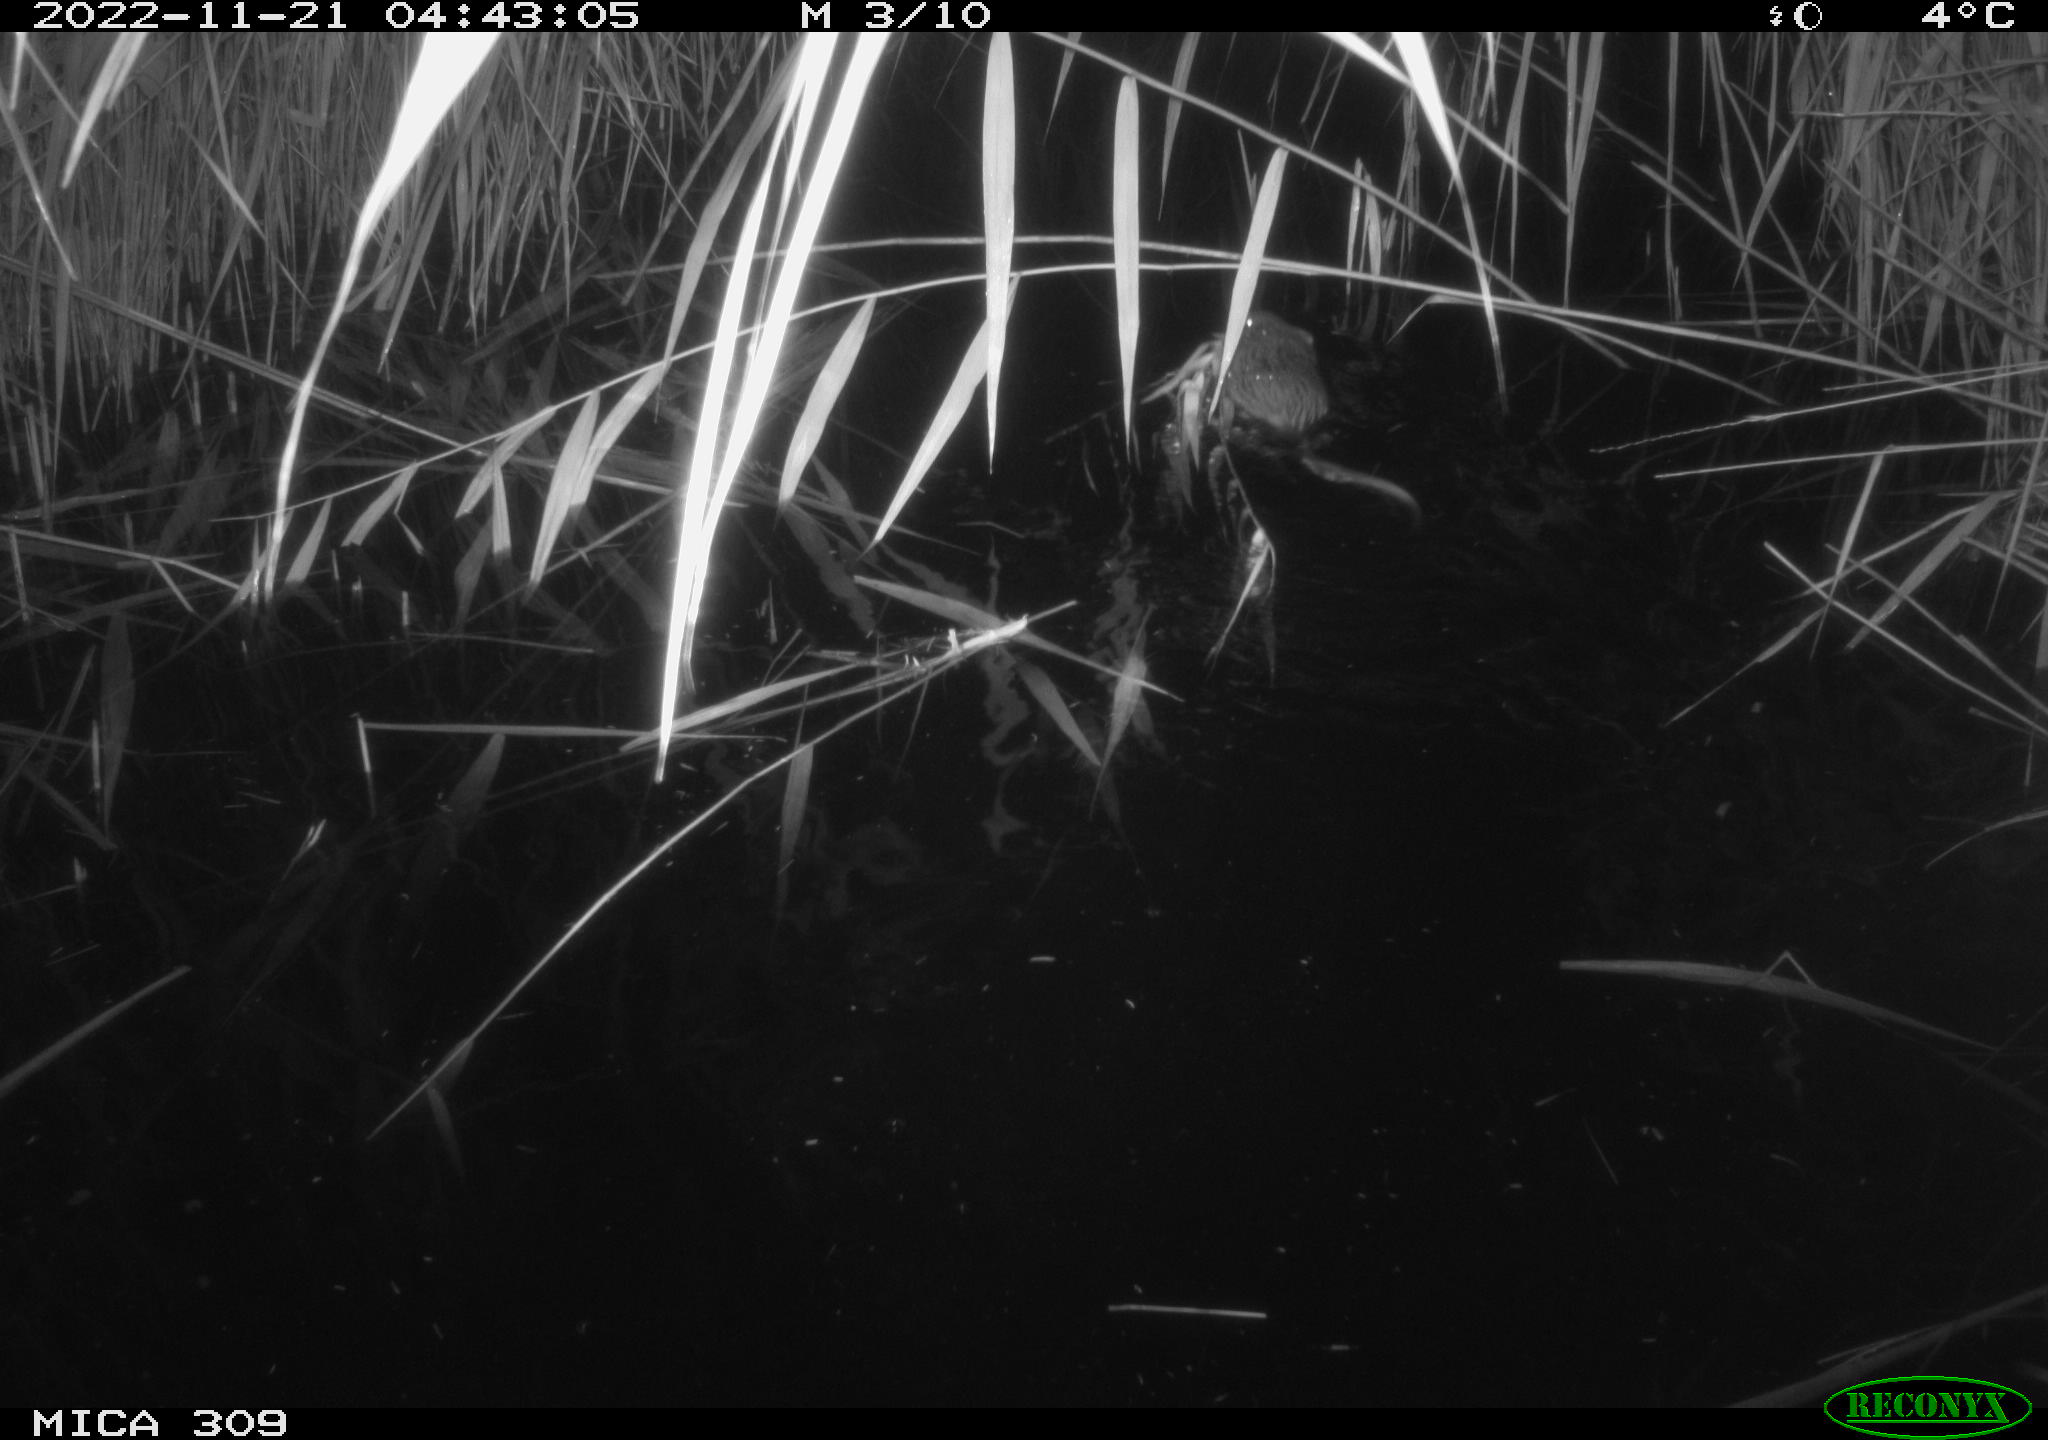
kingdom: Animalia
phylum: Chordata
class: Mammalia
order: Rodentia
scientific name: Rodentia
